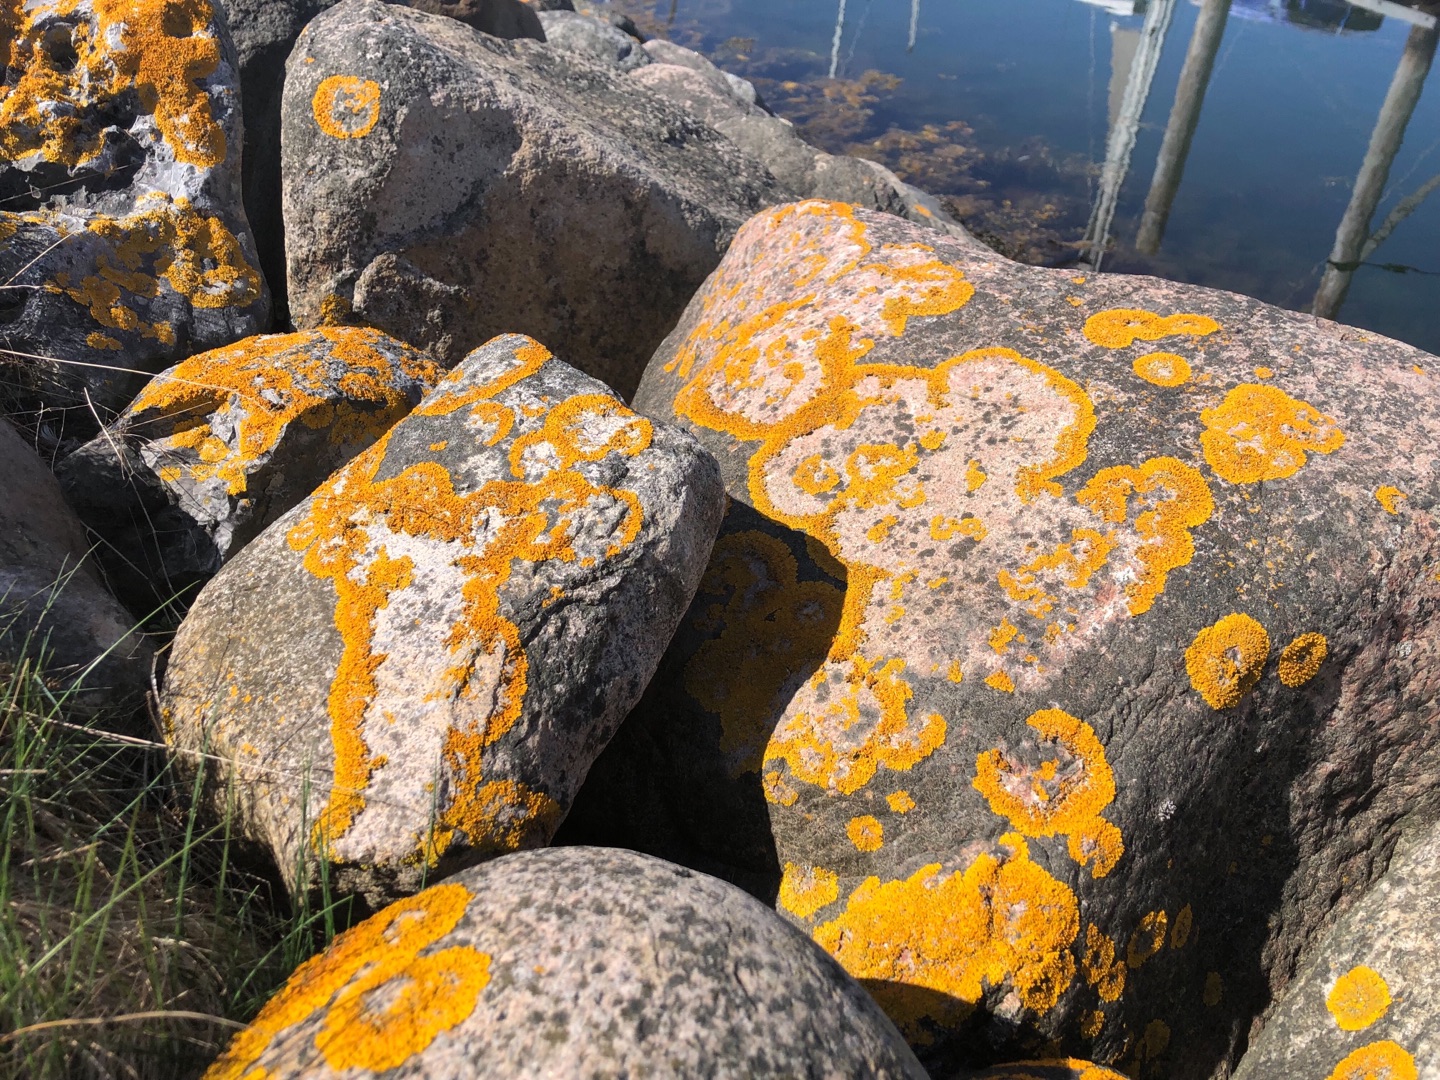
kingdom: Fungi
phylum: Ascomycota
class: Lecanoromycetes
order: Teloschistales
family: Teloschistaceae
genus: Xanthoria
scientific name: Xanthoria parietina
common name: Almindelig væggelav
